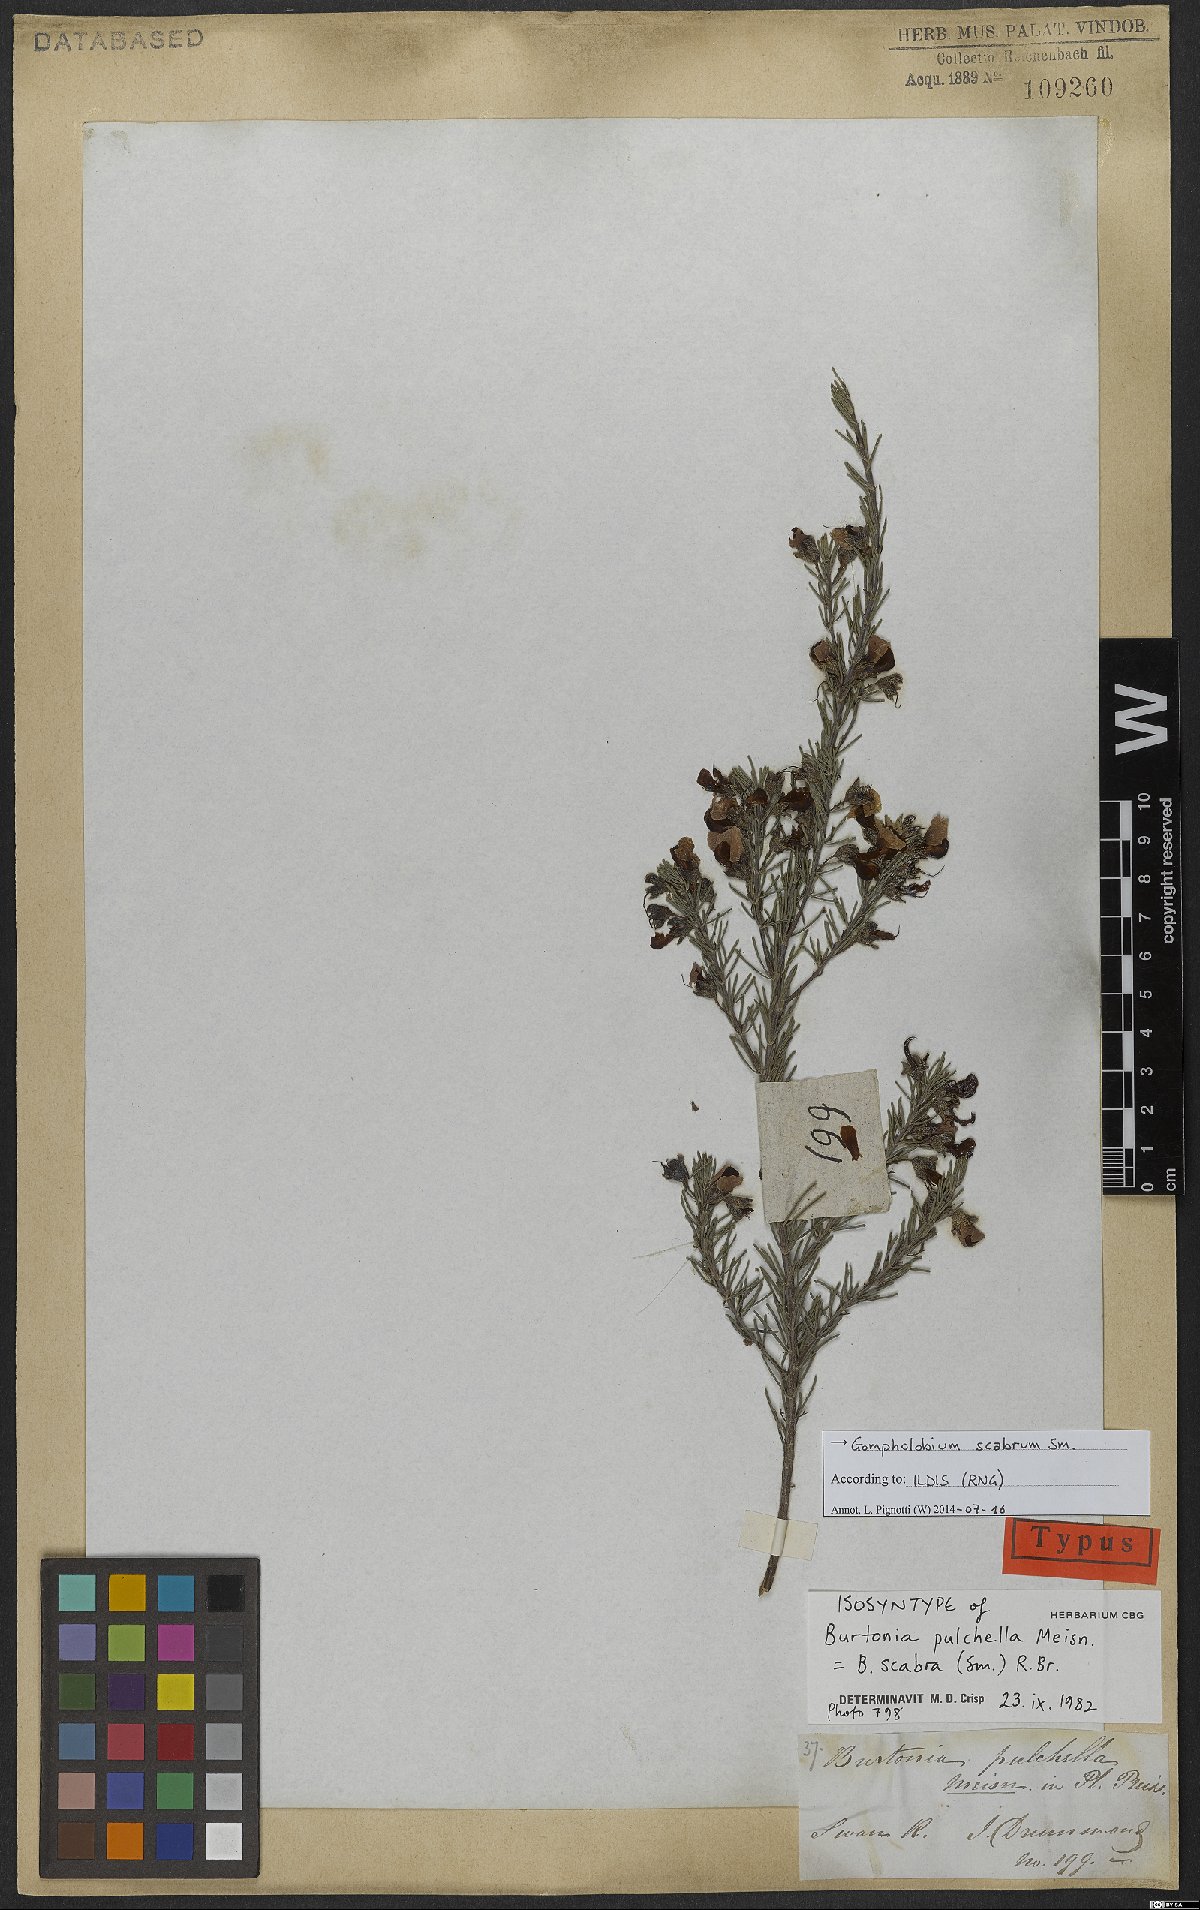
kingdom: Plantae
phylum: Tracheophyta
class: Magnoliopsida
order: Fabales
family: Fabaceae
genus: Gompholobium
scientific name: Gompholobium scabrum
